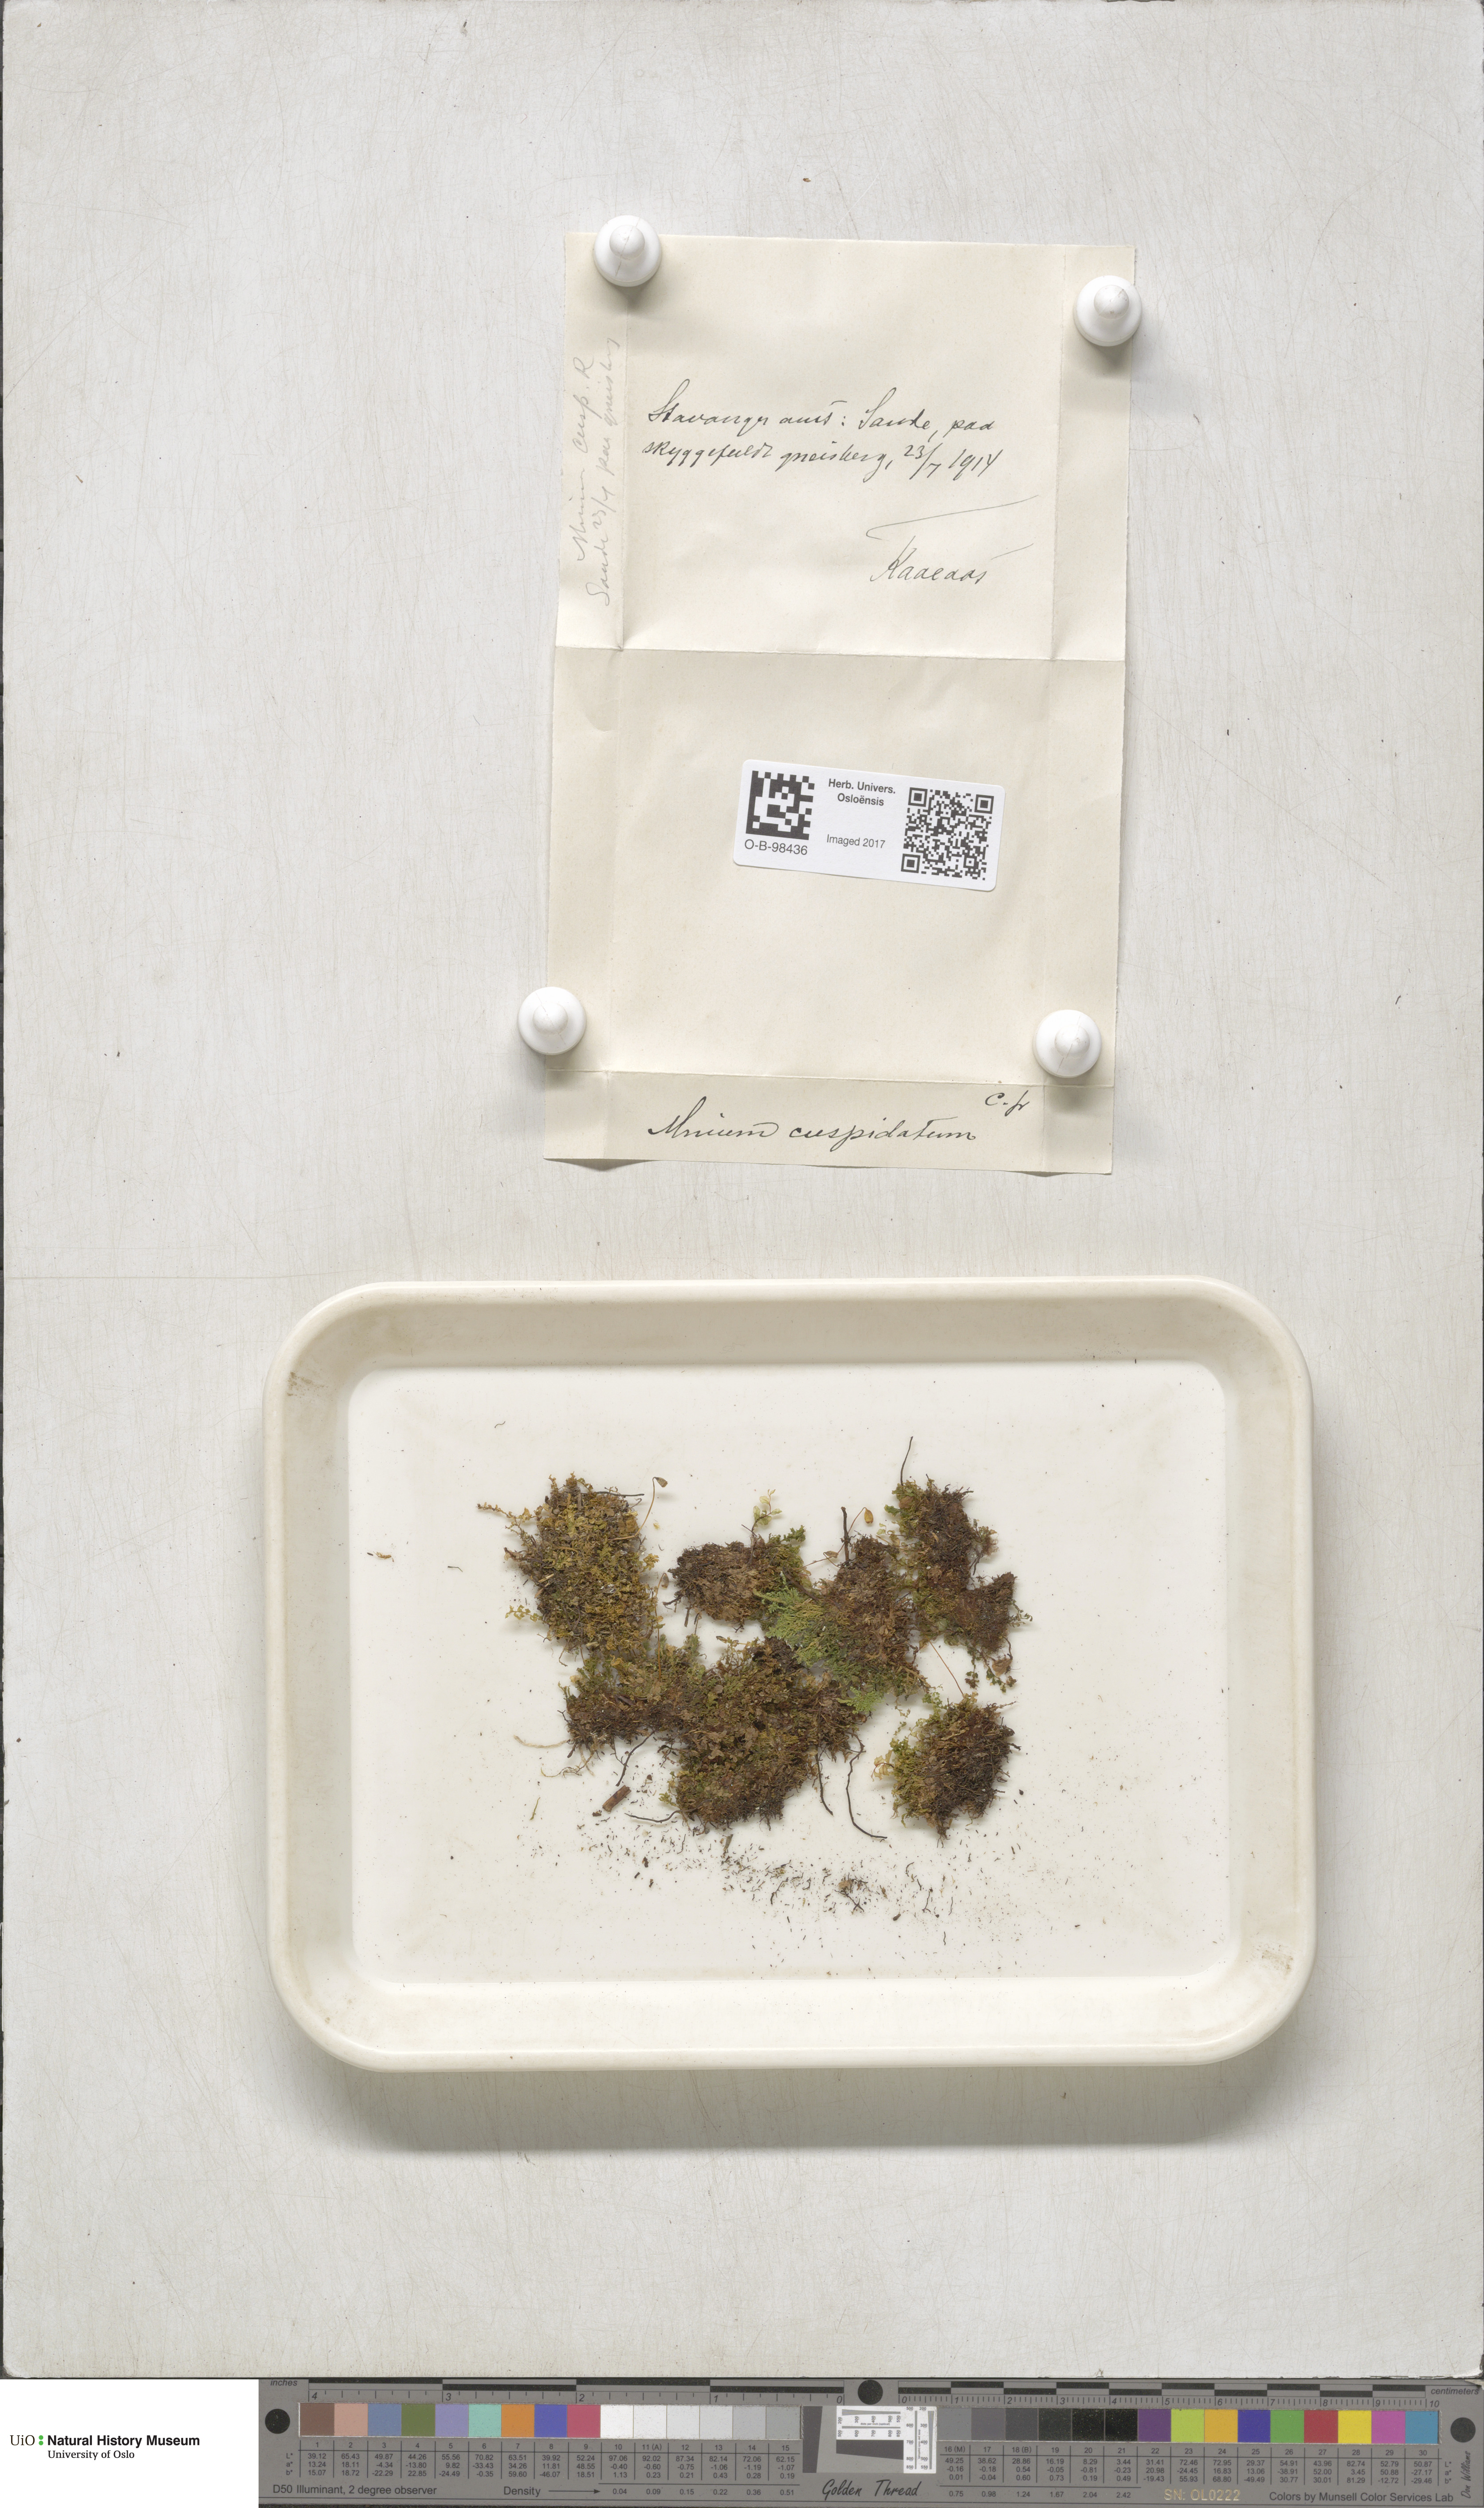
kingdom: Plantae
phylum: Bryophyta
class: Bryopsida
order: Bryales
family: Mniaceae
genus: Plagiomnium
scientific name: Plagiomnium cuspidatum
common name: Woodsy leafy moss
